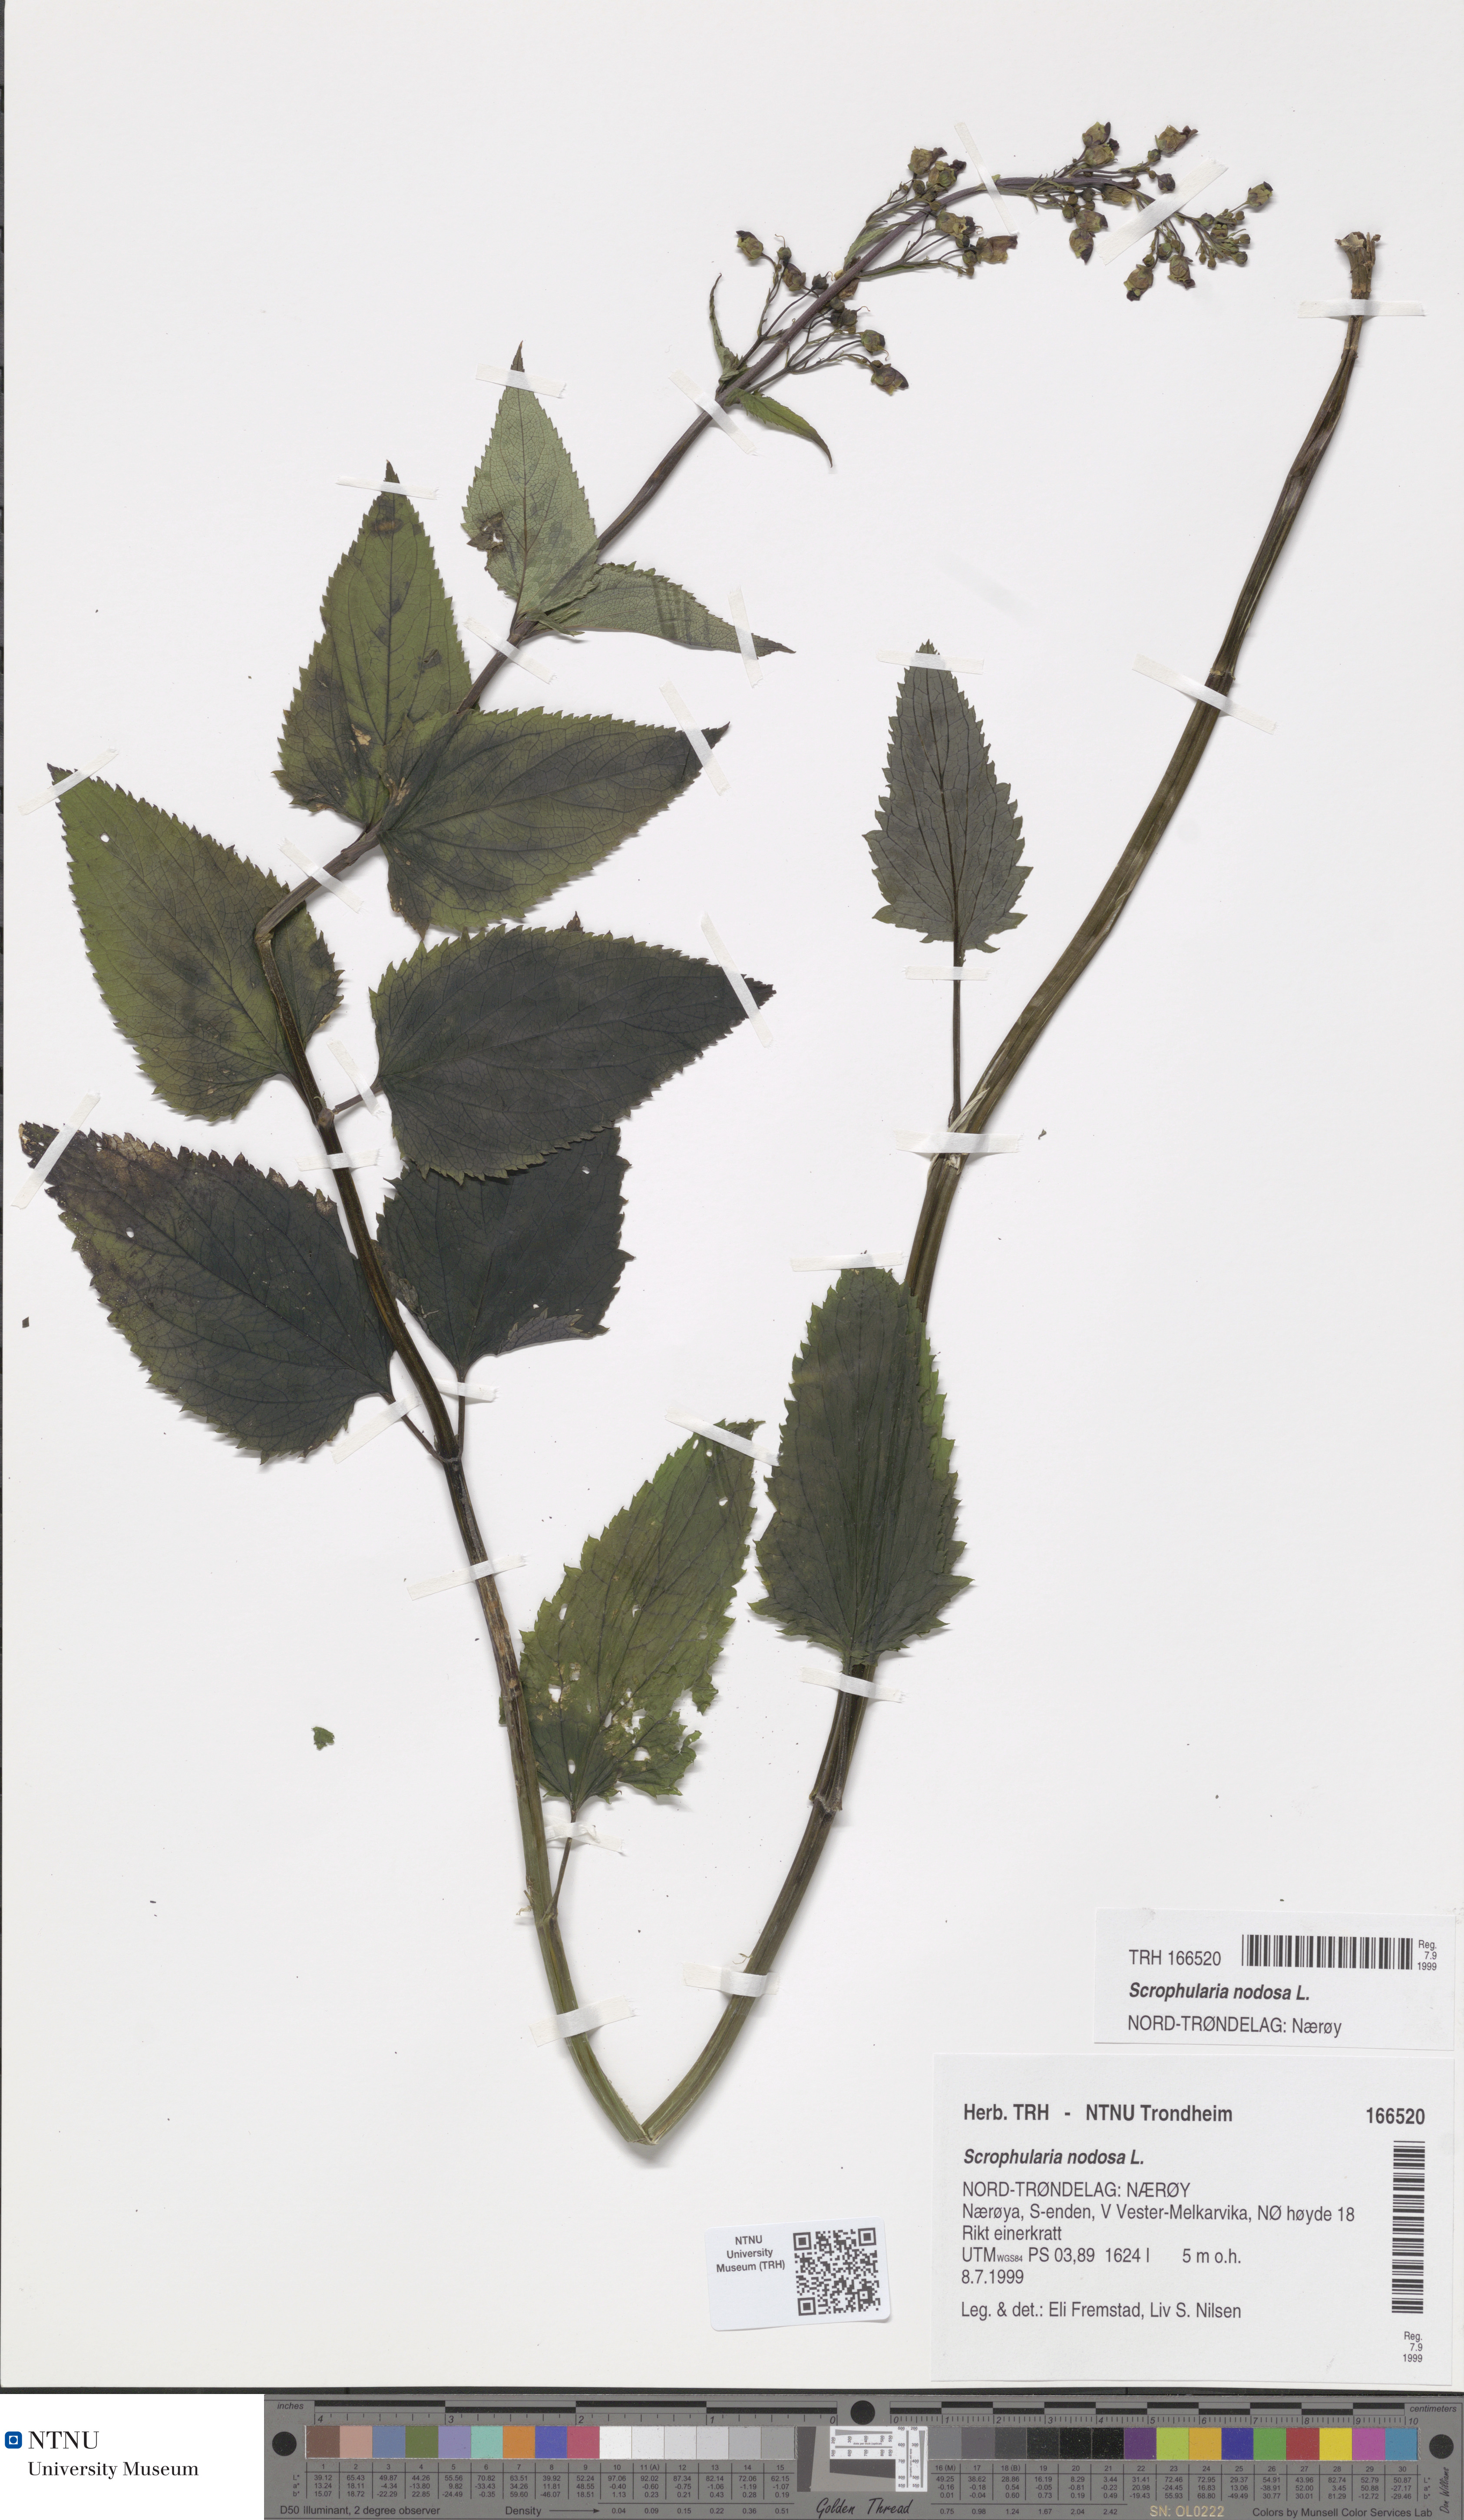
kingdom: Plantae
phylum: Tracheophyta
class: Magnoliopsida
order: Lamiales
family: Scrophulariaceae
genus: Scrophularia
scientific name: Scrophularia nodosa
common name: Common figwort
